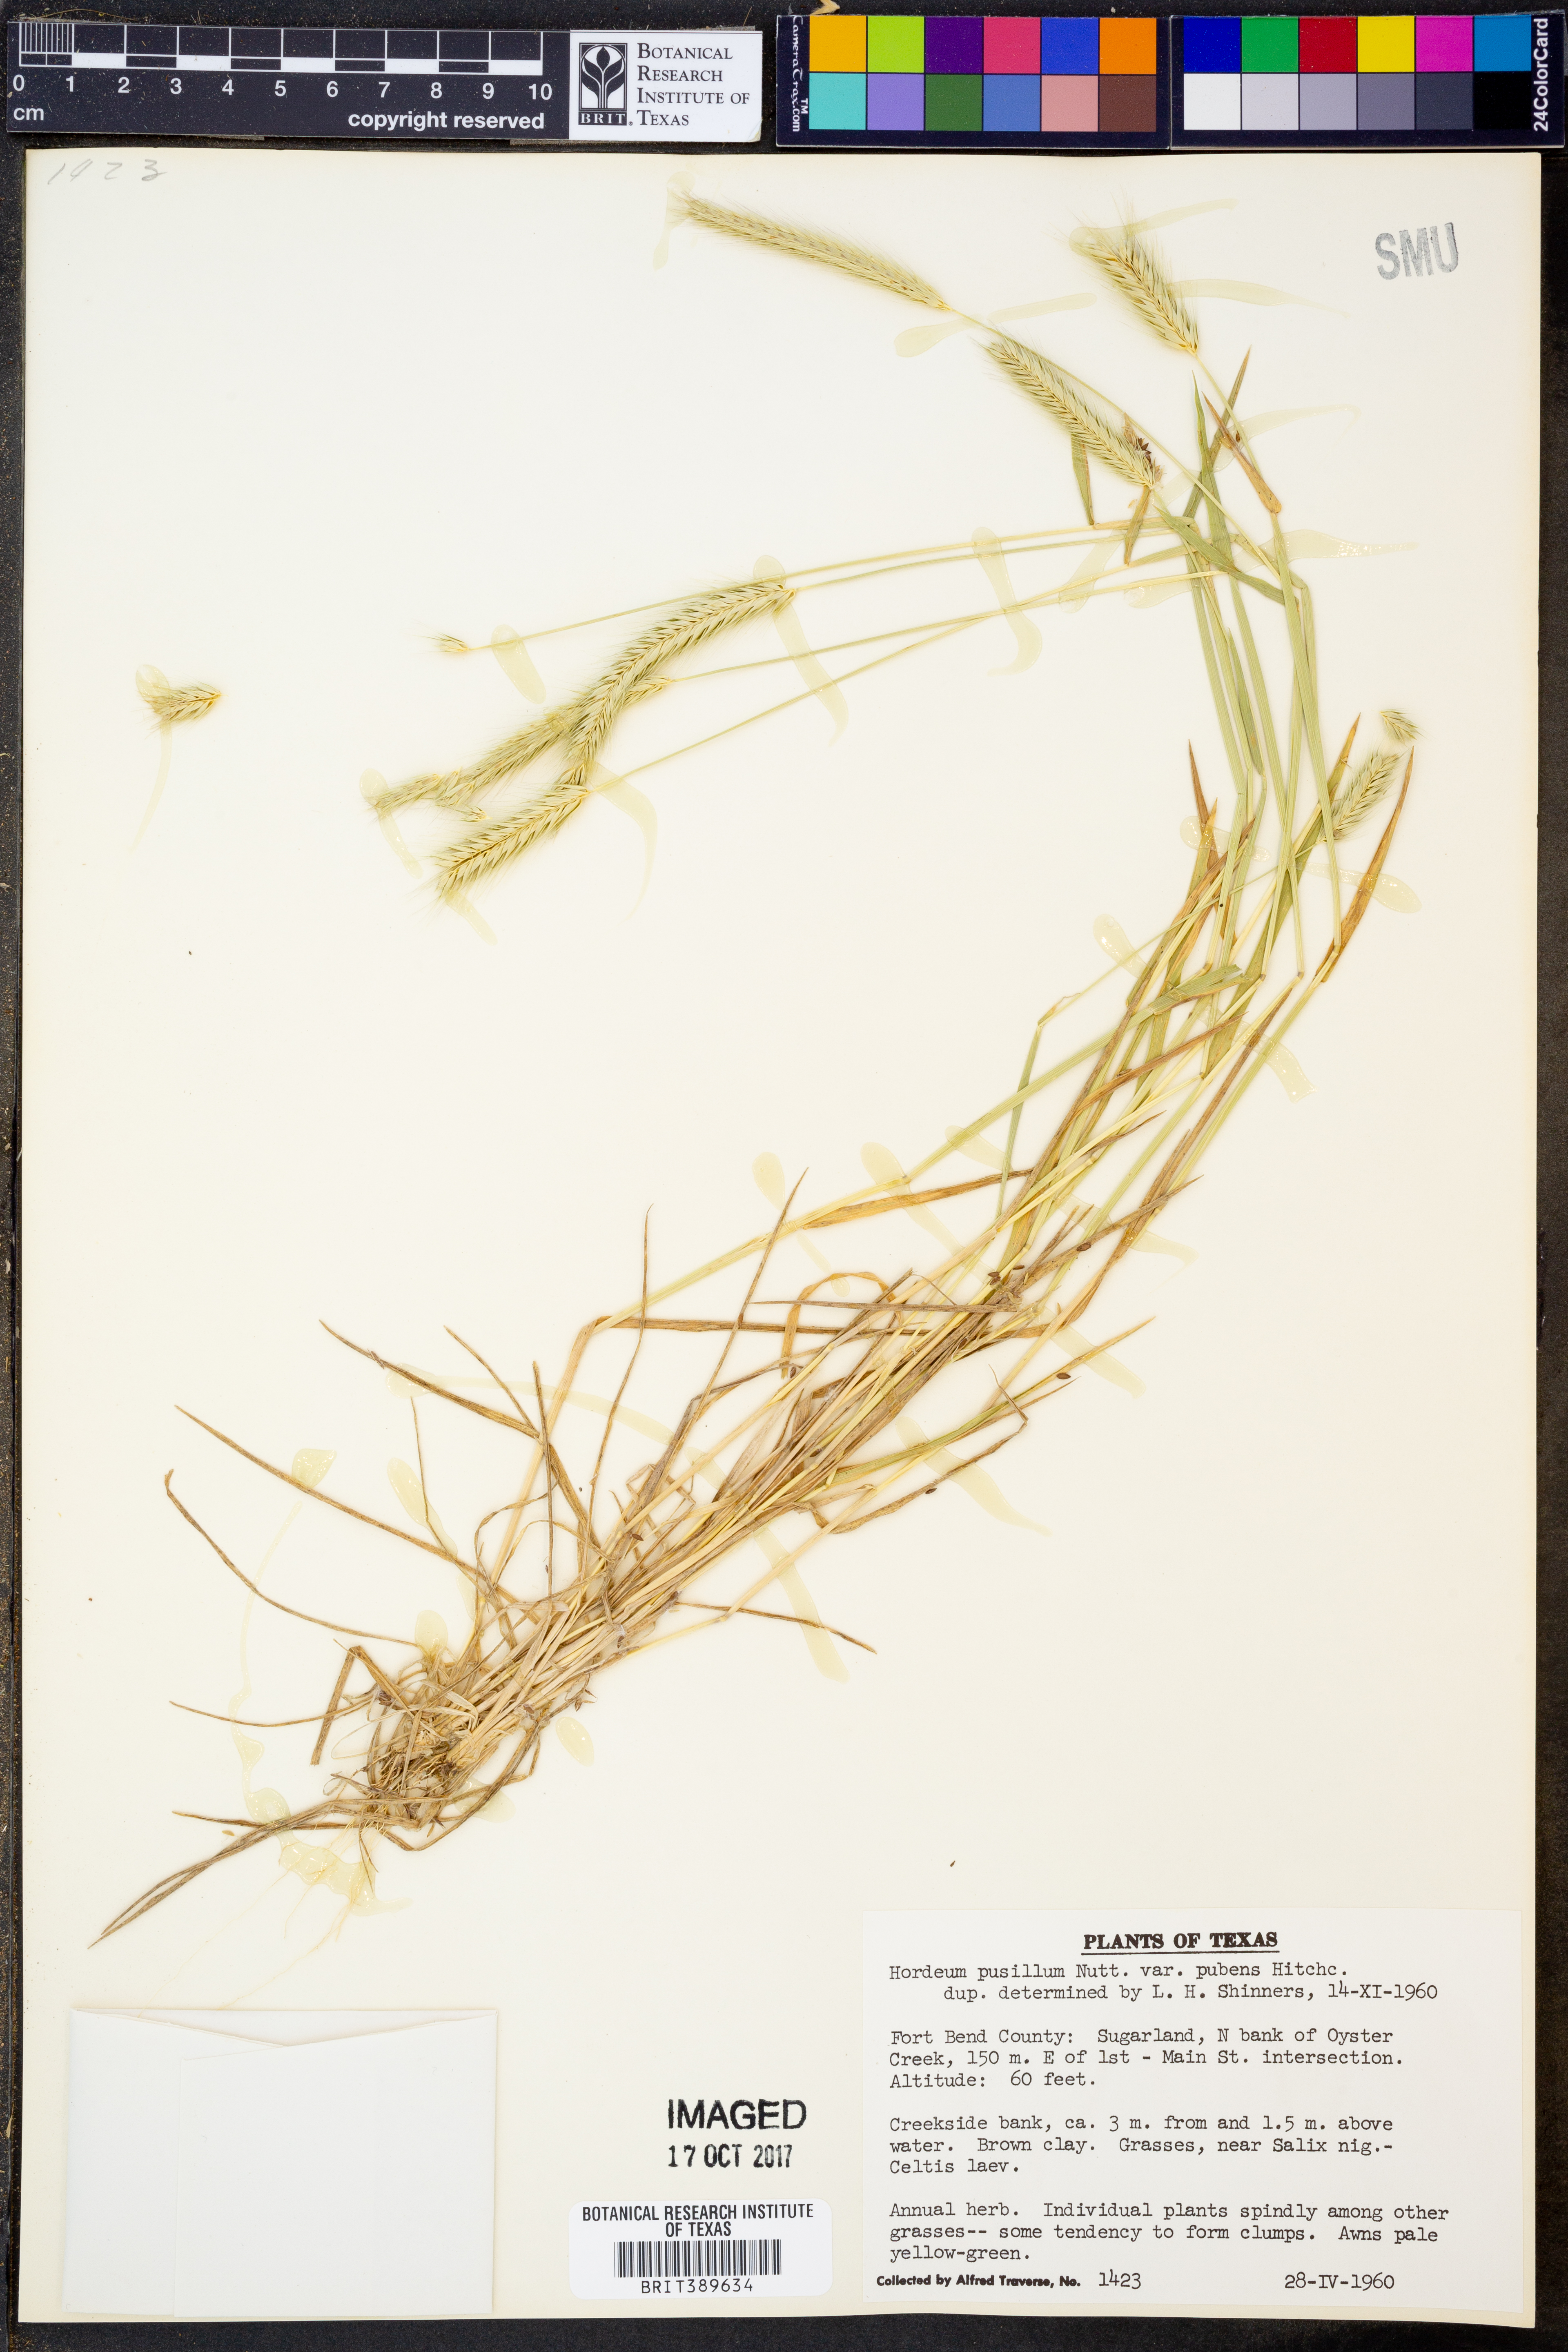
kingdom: Plantae
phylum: Tracheophyta
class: Liliopsida
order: Poales
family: Poaceae
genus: Hordeum
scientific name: Hordeum pusillum
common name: Little barley
